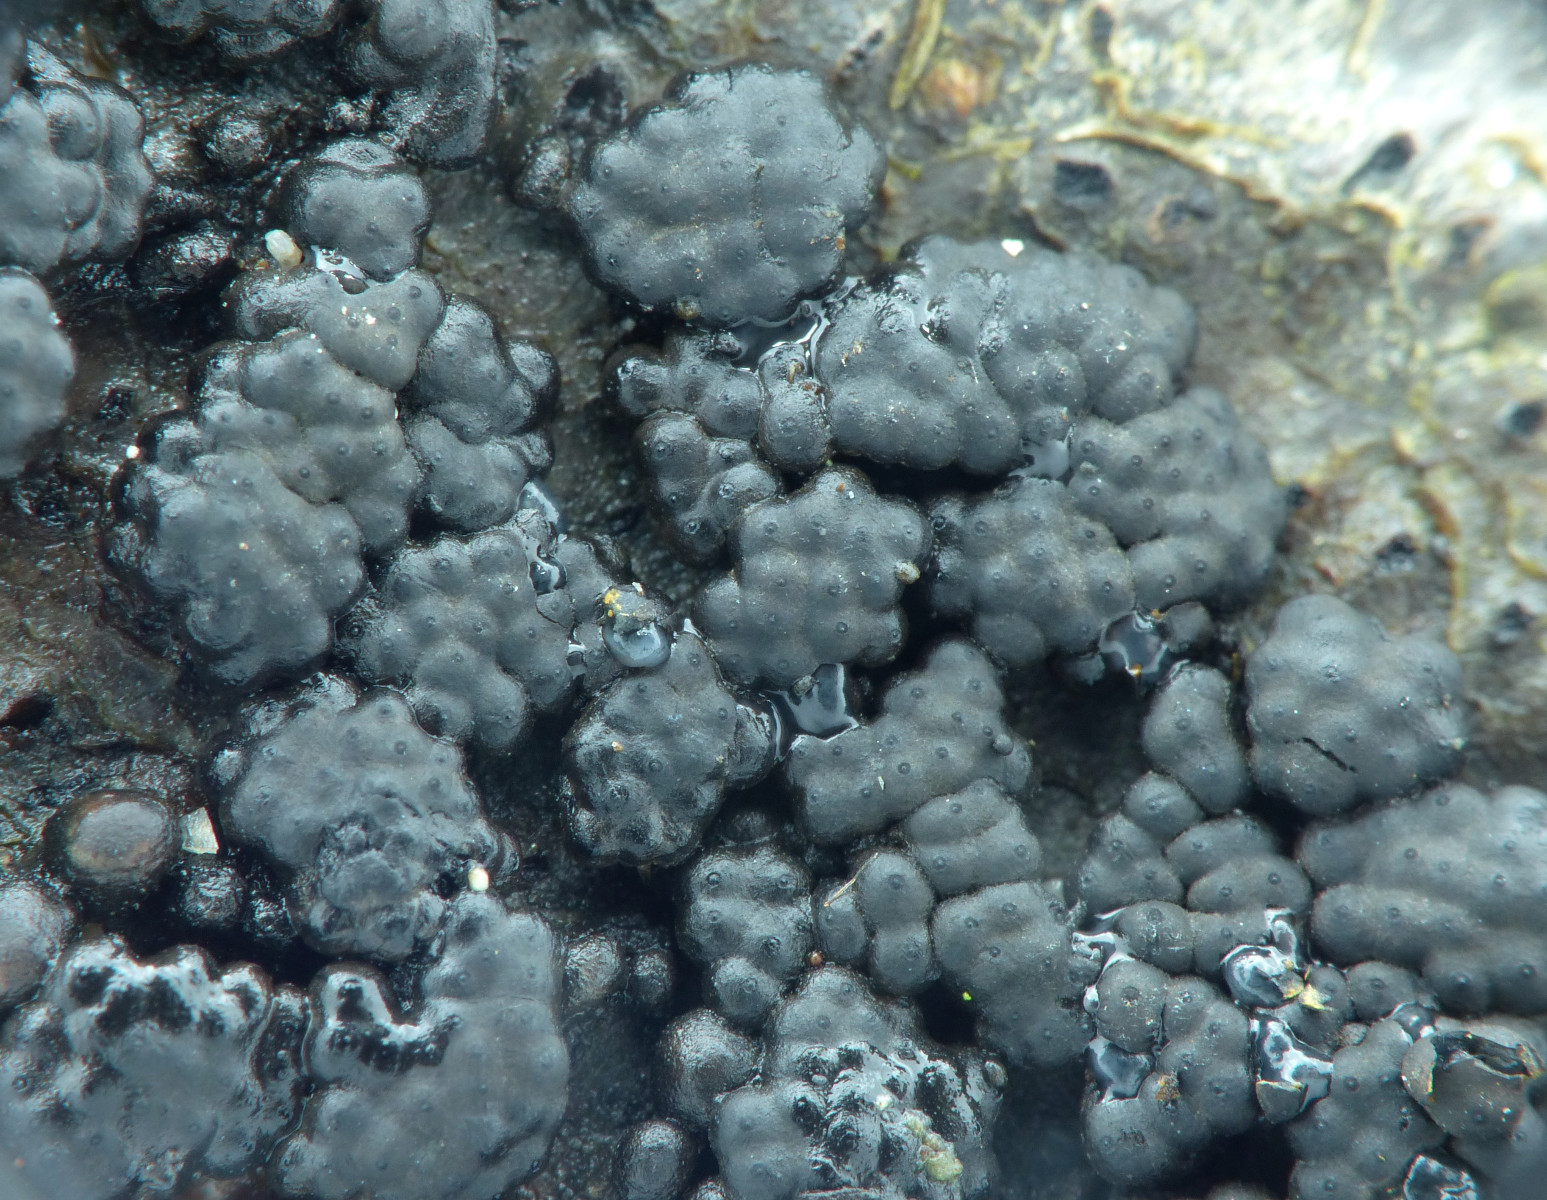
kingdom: Fungi
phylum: Ascomycota
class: Sordariomycetes
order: Xylariales
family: Hypoxylaceae
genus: Jackrogersella
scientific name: Jackrogersella cohaerens
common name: sammenflydende kulbær
